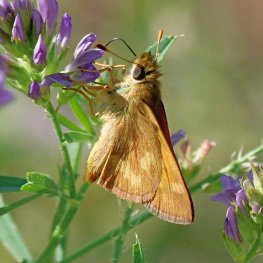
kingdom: Animalia
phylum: Arthropoda
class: Insecta
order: Lepidoptera
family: Hesperiidae
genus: Ochlodes
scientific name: Ochlodes sylvanoides
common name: Woodland Skipper
